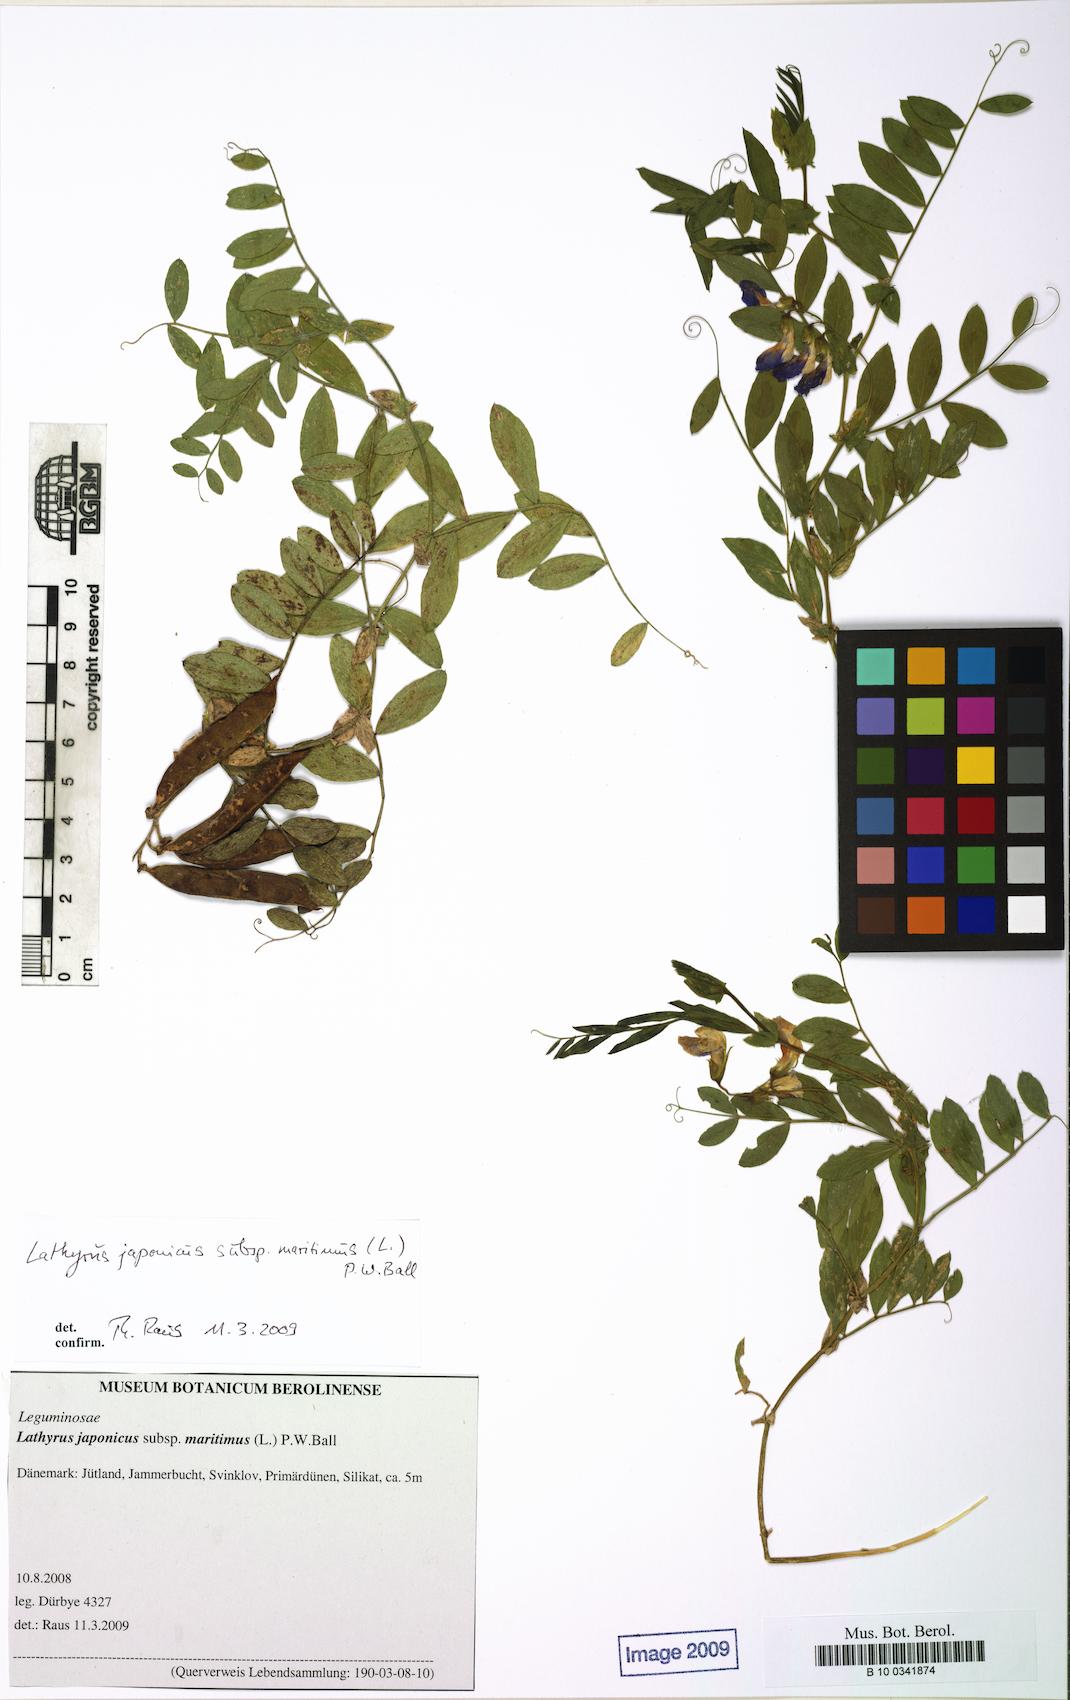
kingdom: Plantae
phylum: Tracheophyta
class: Magnoliopsida
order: Fabales
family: Fabaceae
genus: Lathyrus
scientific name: Lathyrus japonicus
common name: Sea pea
